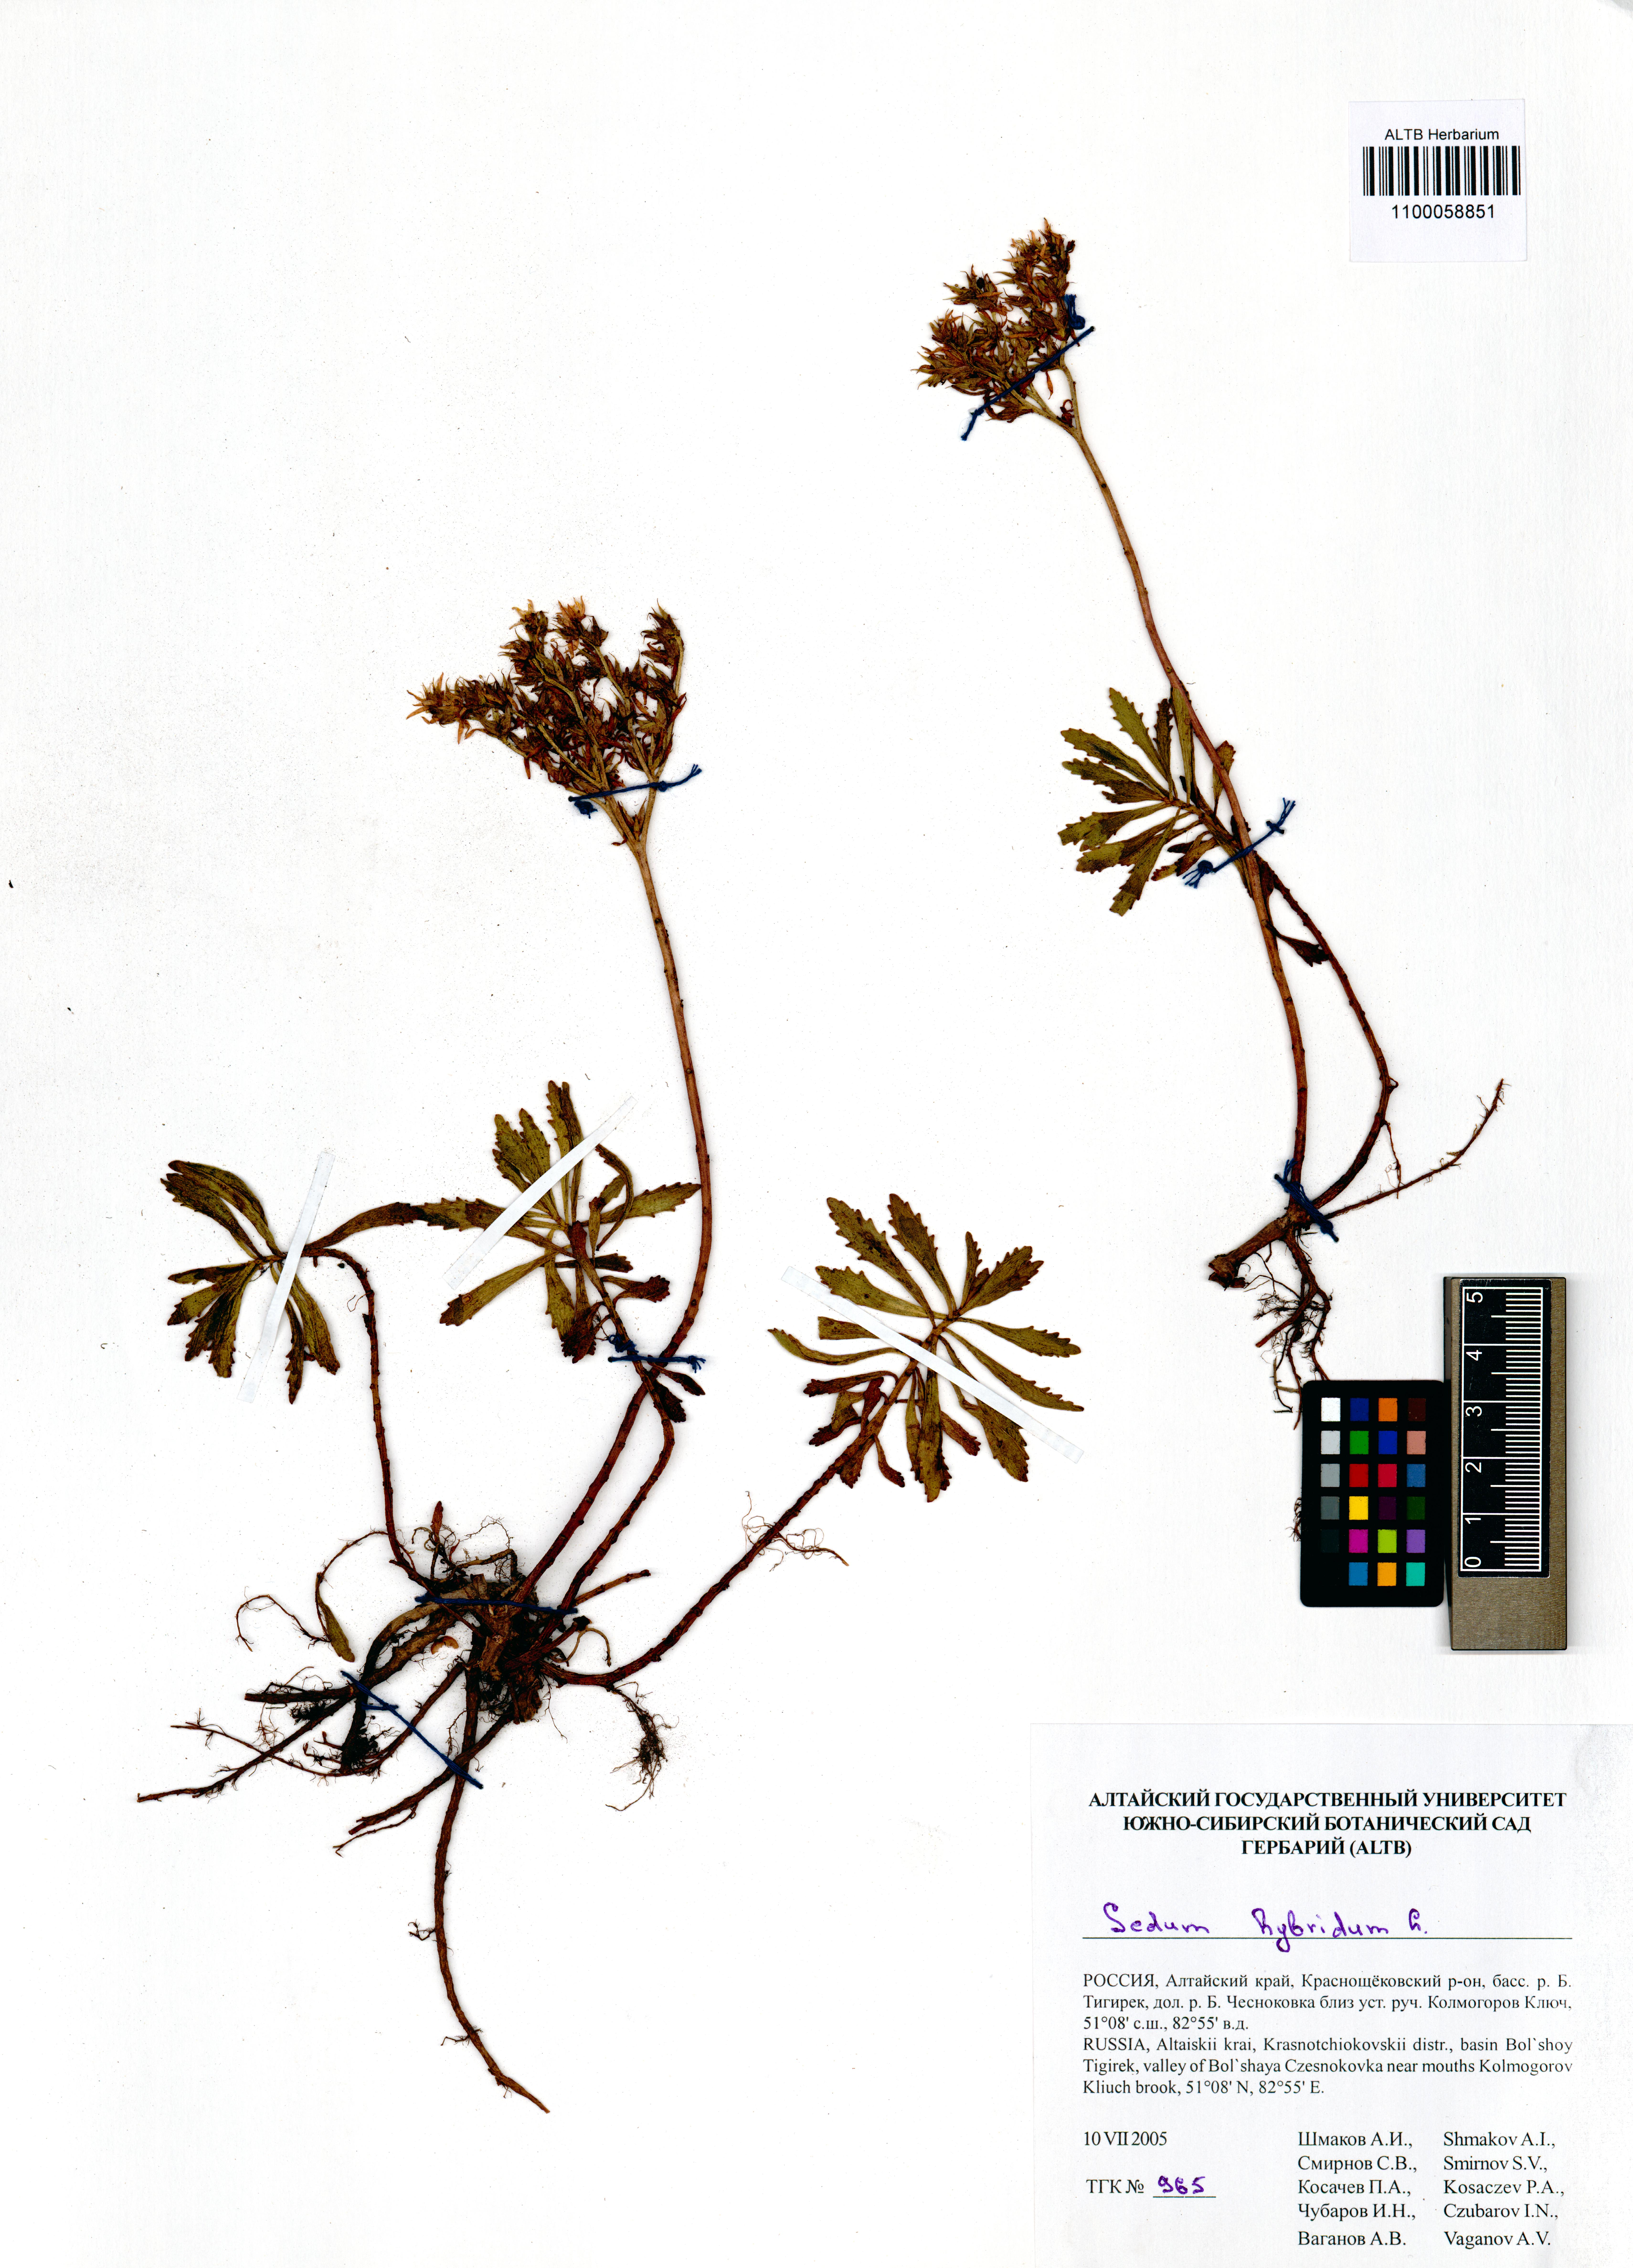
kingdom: Plantae
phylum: Tracheophyta
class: Magnoliopsida
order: Saxifragales
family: Crassulaceae
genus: Phedimus
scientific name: Phedimus hybridus
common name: Hybrid stonecrop
